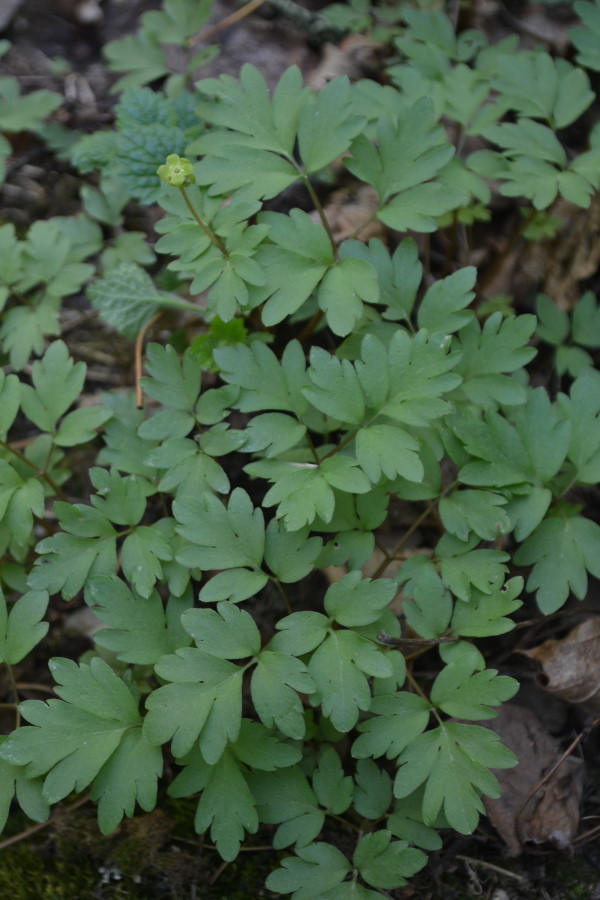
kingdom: Plantae
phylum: Tracheophyta
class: Magnoliopsida
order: Dipsacales
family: Viburnaceae
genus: Adoxa
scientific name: Adoxa moschatellina
